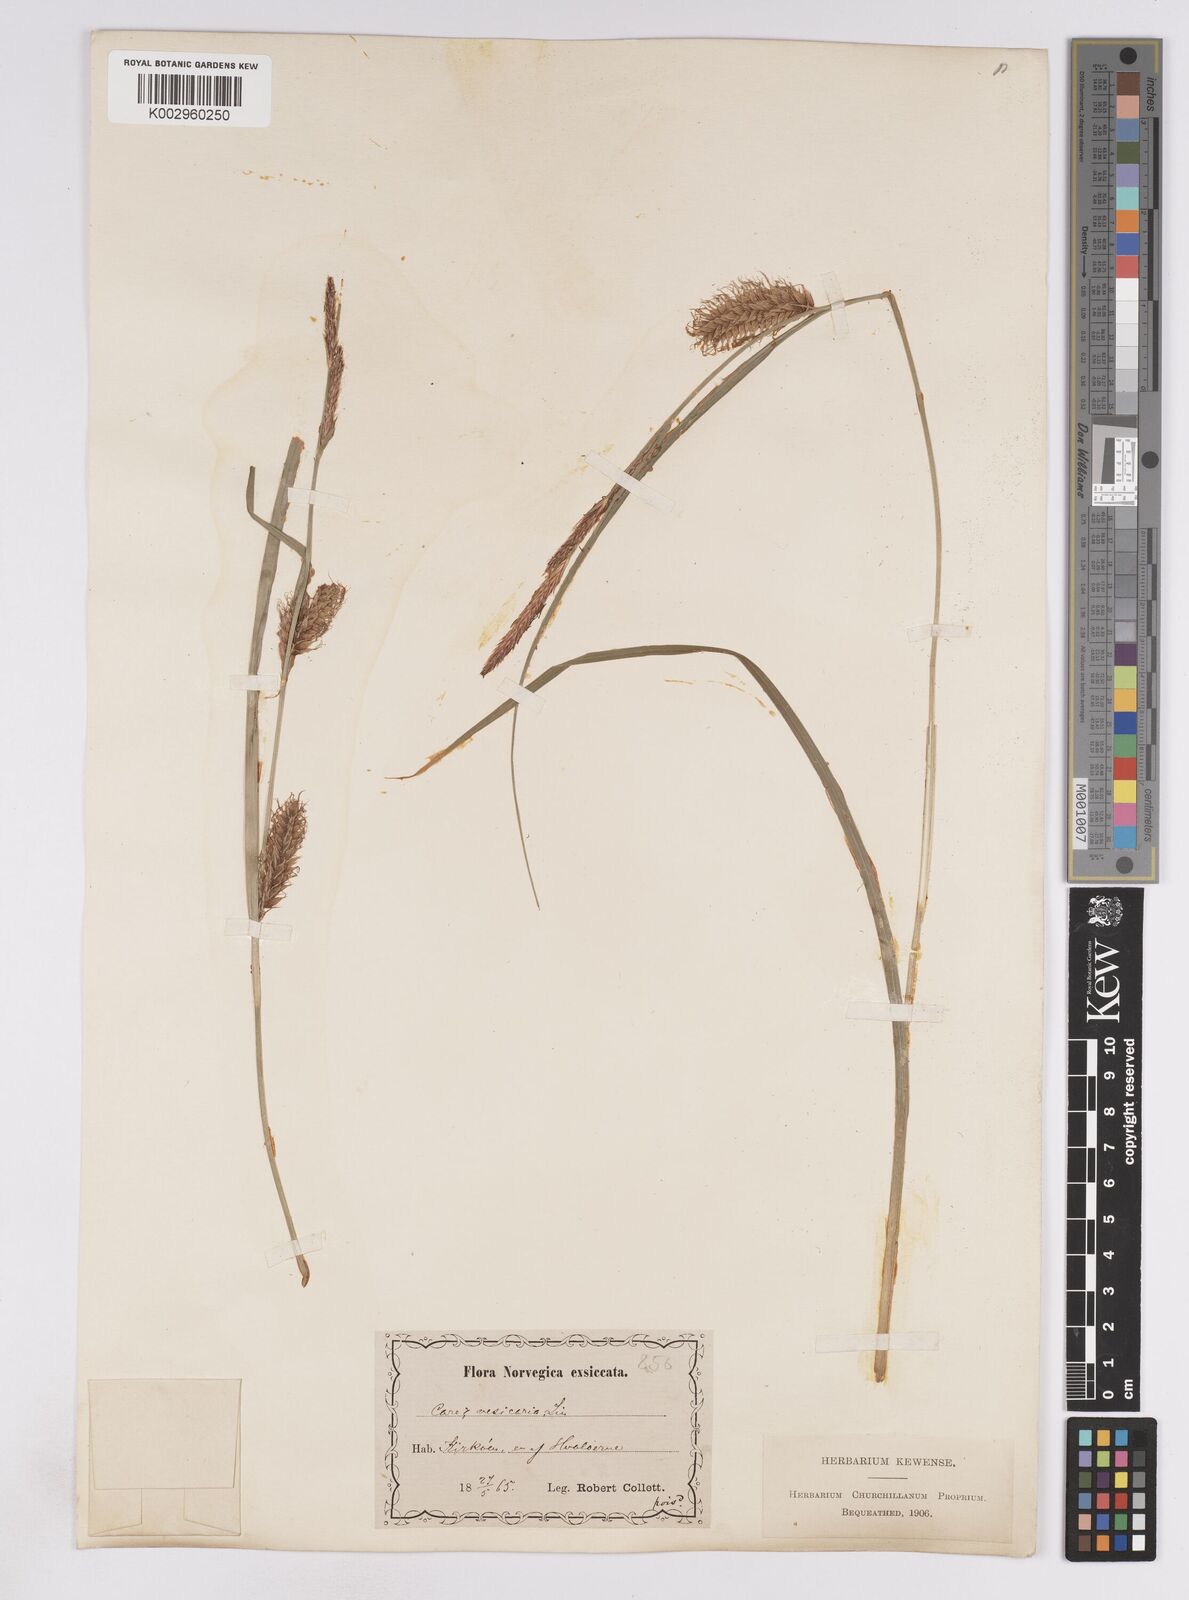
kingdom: Plantae
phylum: Tracheophyta
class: Liliopsida
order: Poales
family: Cyperaceae
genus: Carex
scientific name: Carex vesicaria
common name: Bladder-sedge
